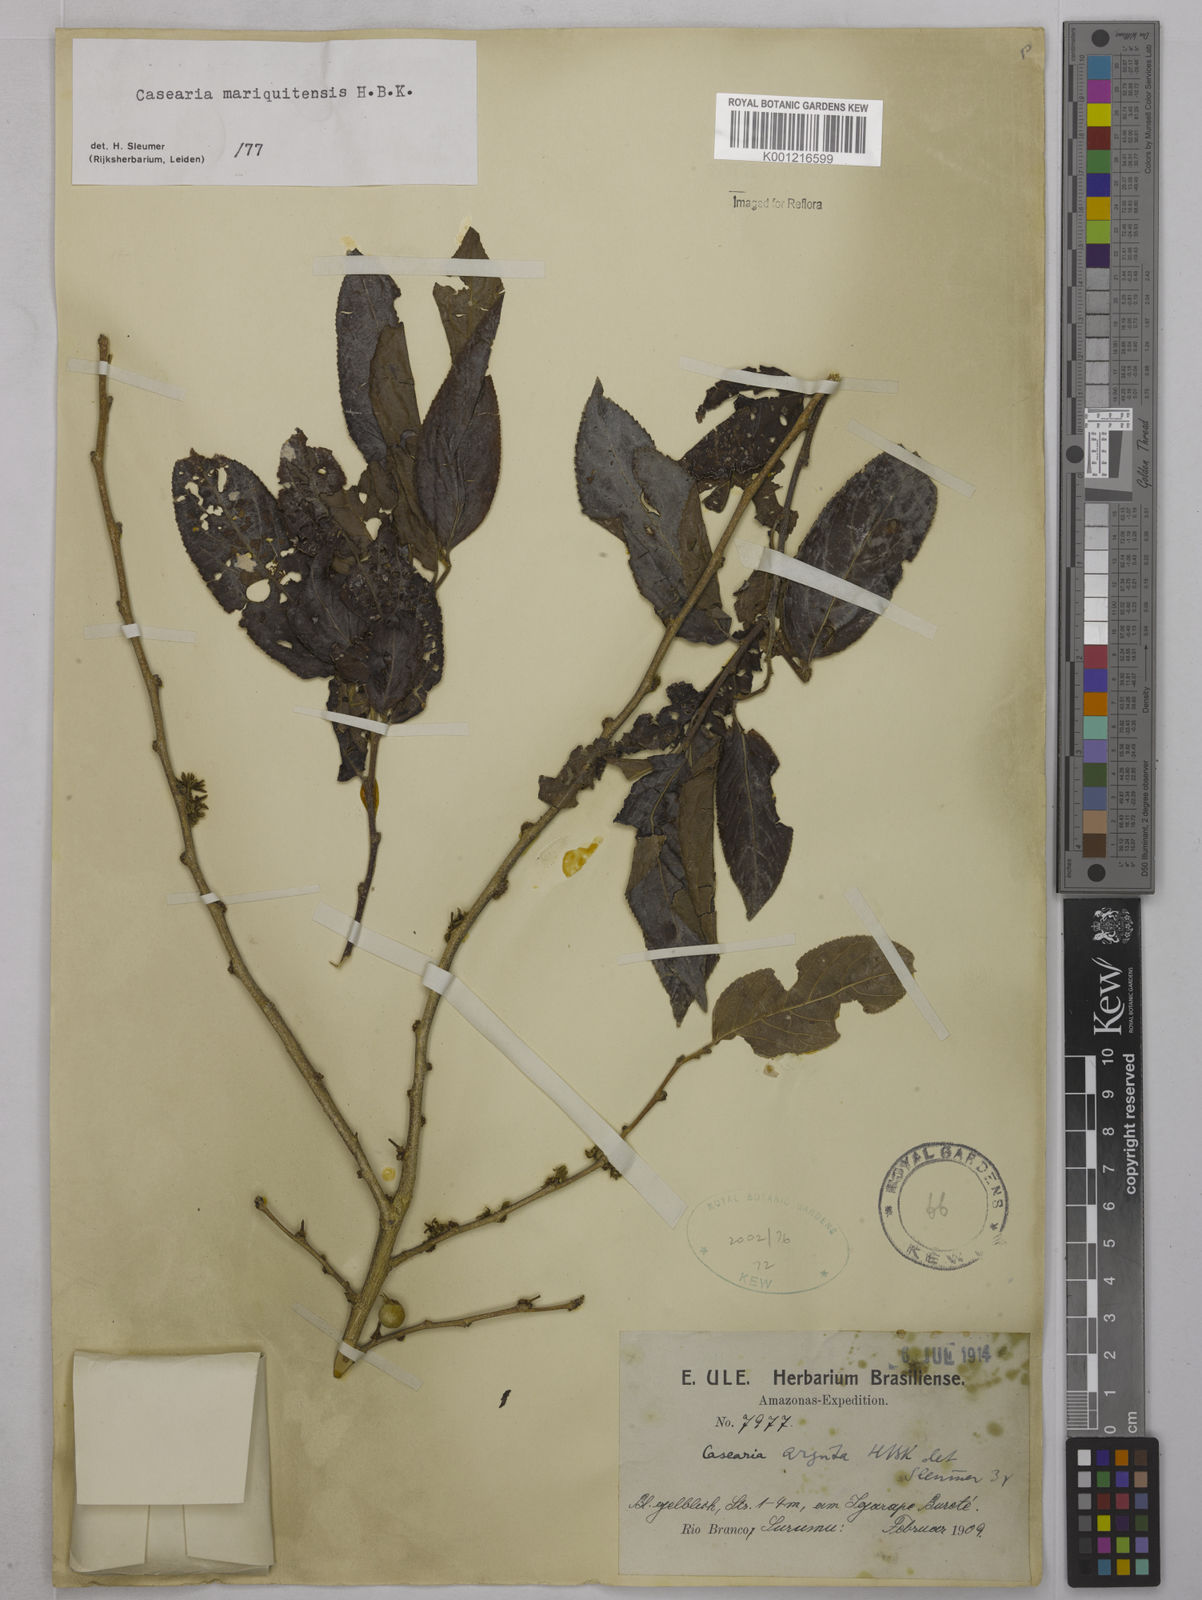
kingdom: Plantae
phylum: Tracheophyta
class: Magnoliopsida
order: Malpighiales
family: Salicaceae
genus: Casearia
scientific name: Casearia mariquitensis
